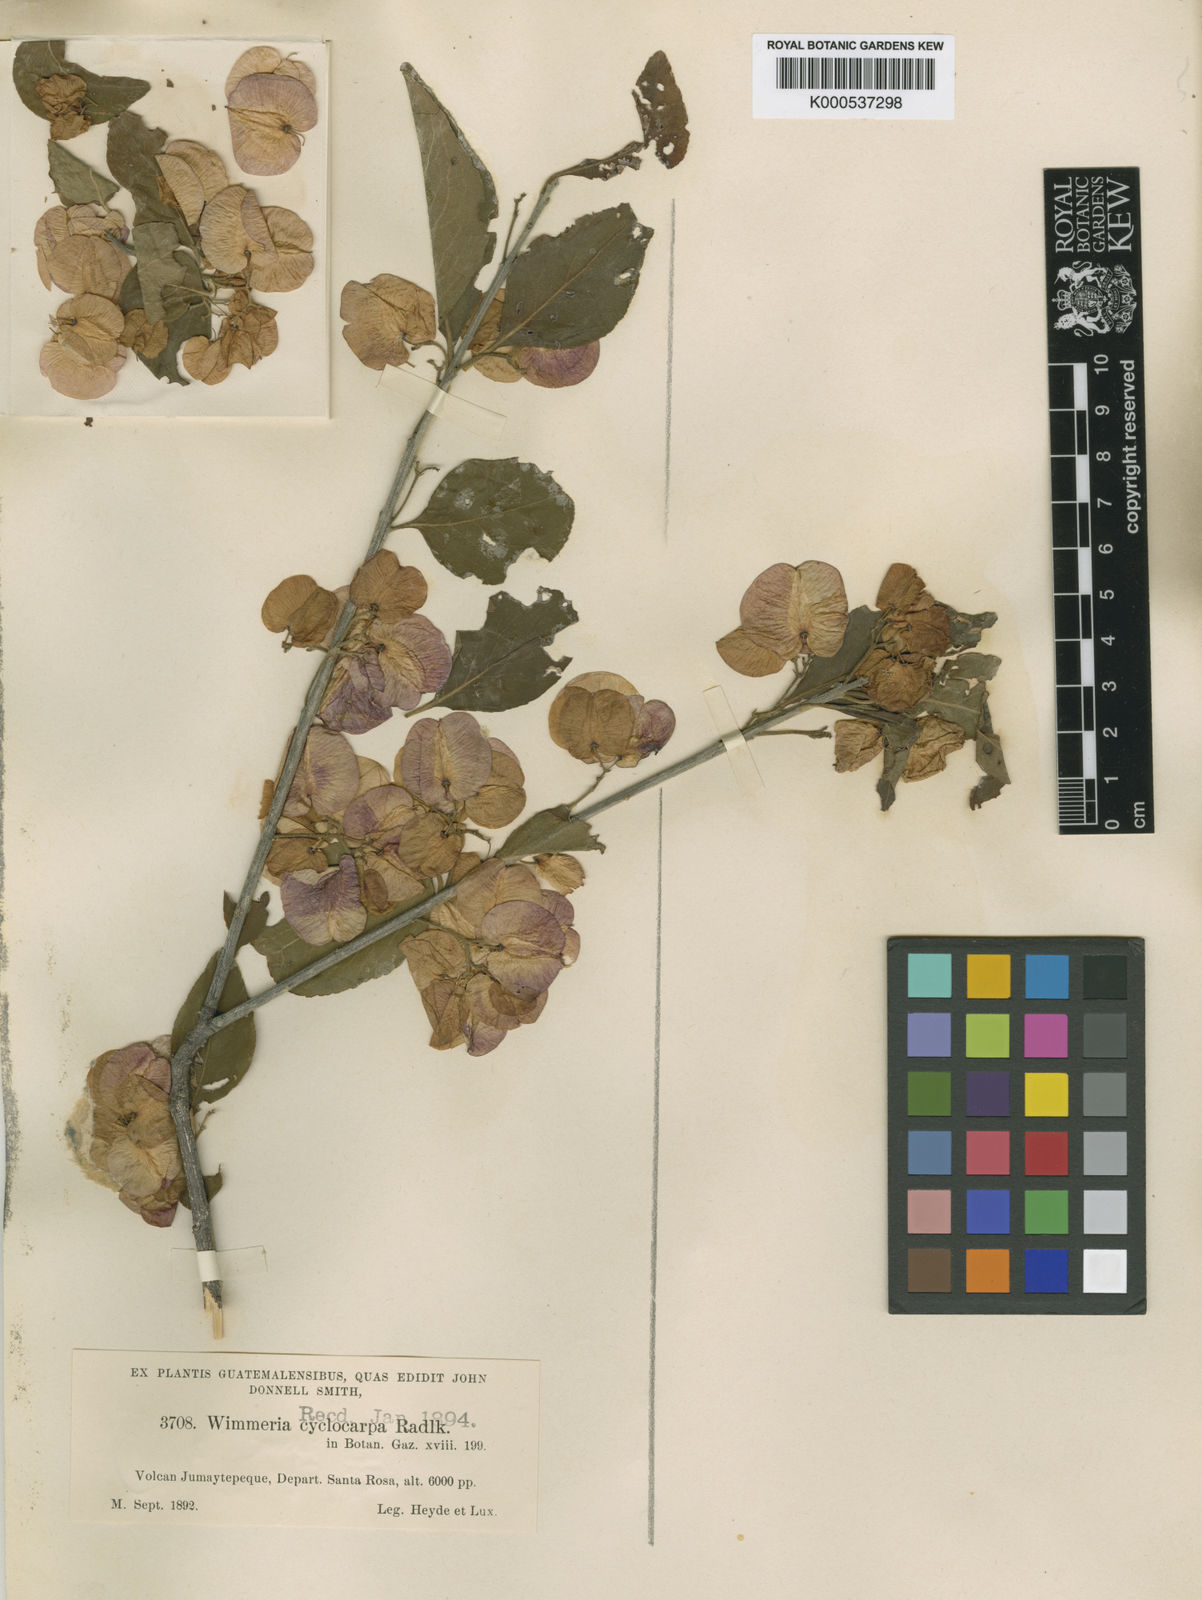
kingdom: Plantae
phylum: Tracheophyta
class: Magnoliopsida
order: Celastrales
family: Celastraceae
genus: Wimmeria
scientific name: Wimmeria cyclocarpa
